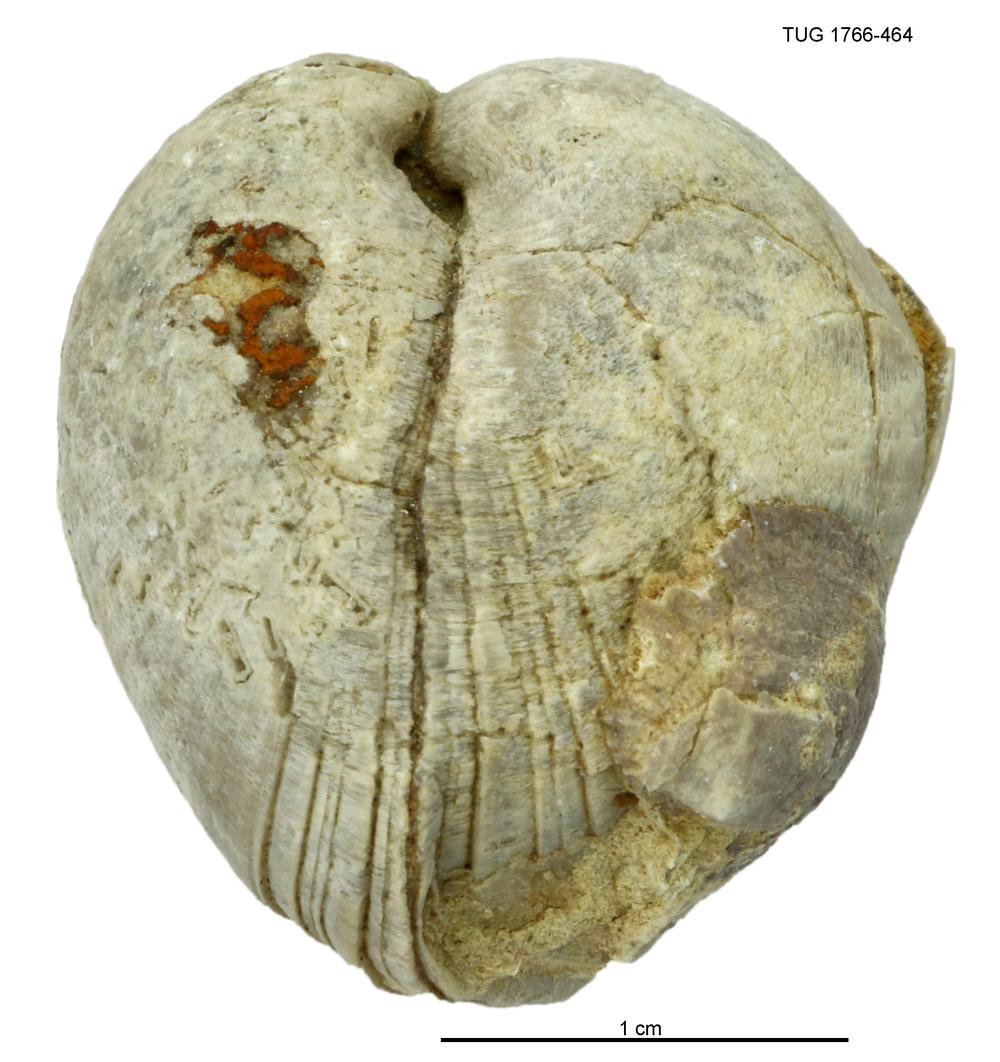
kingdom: Animalia
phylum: Brachiopoda
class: Rhynchonellata
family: Porambonitidae
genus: Porambonites
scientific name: Porambonites
